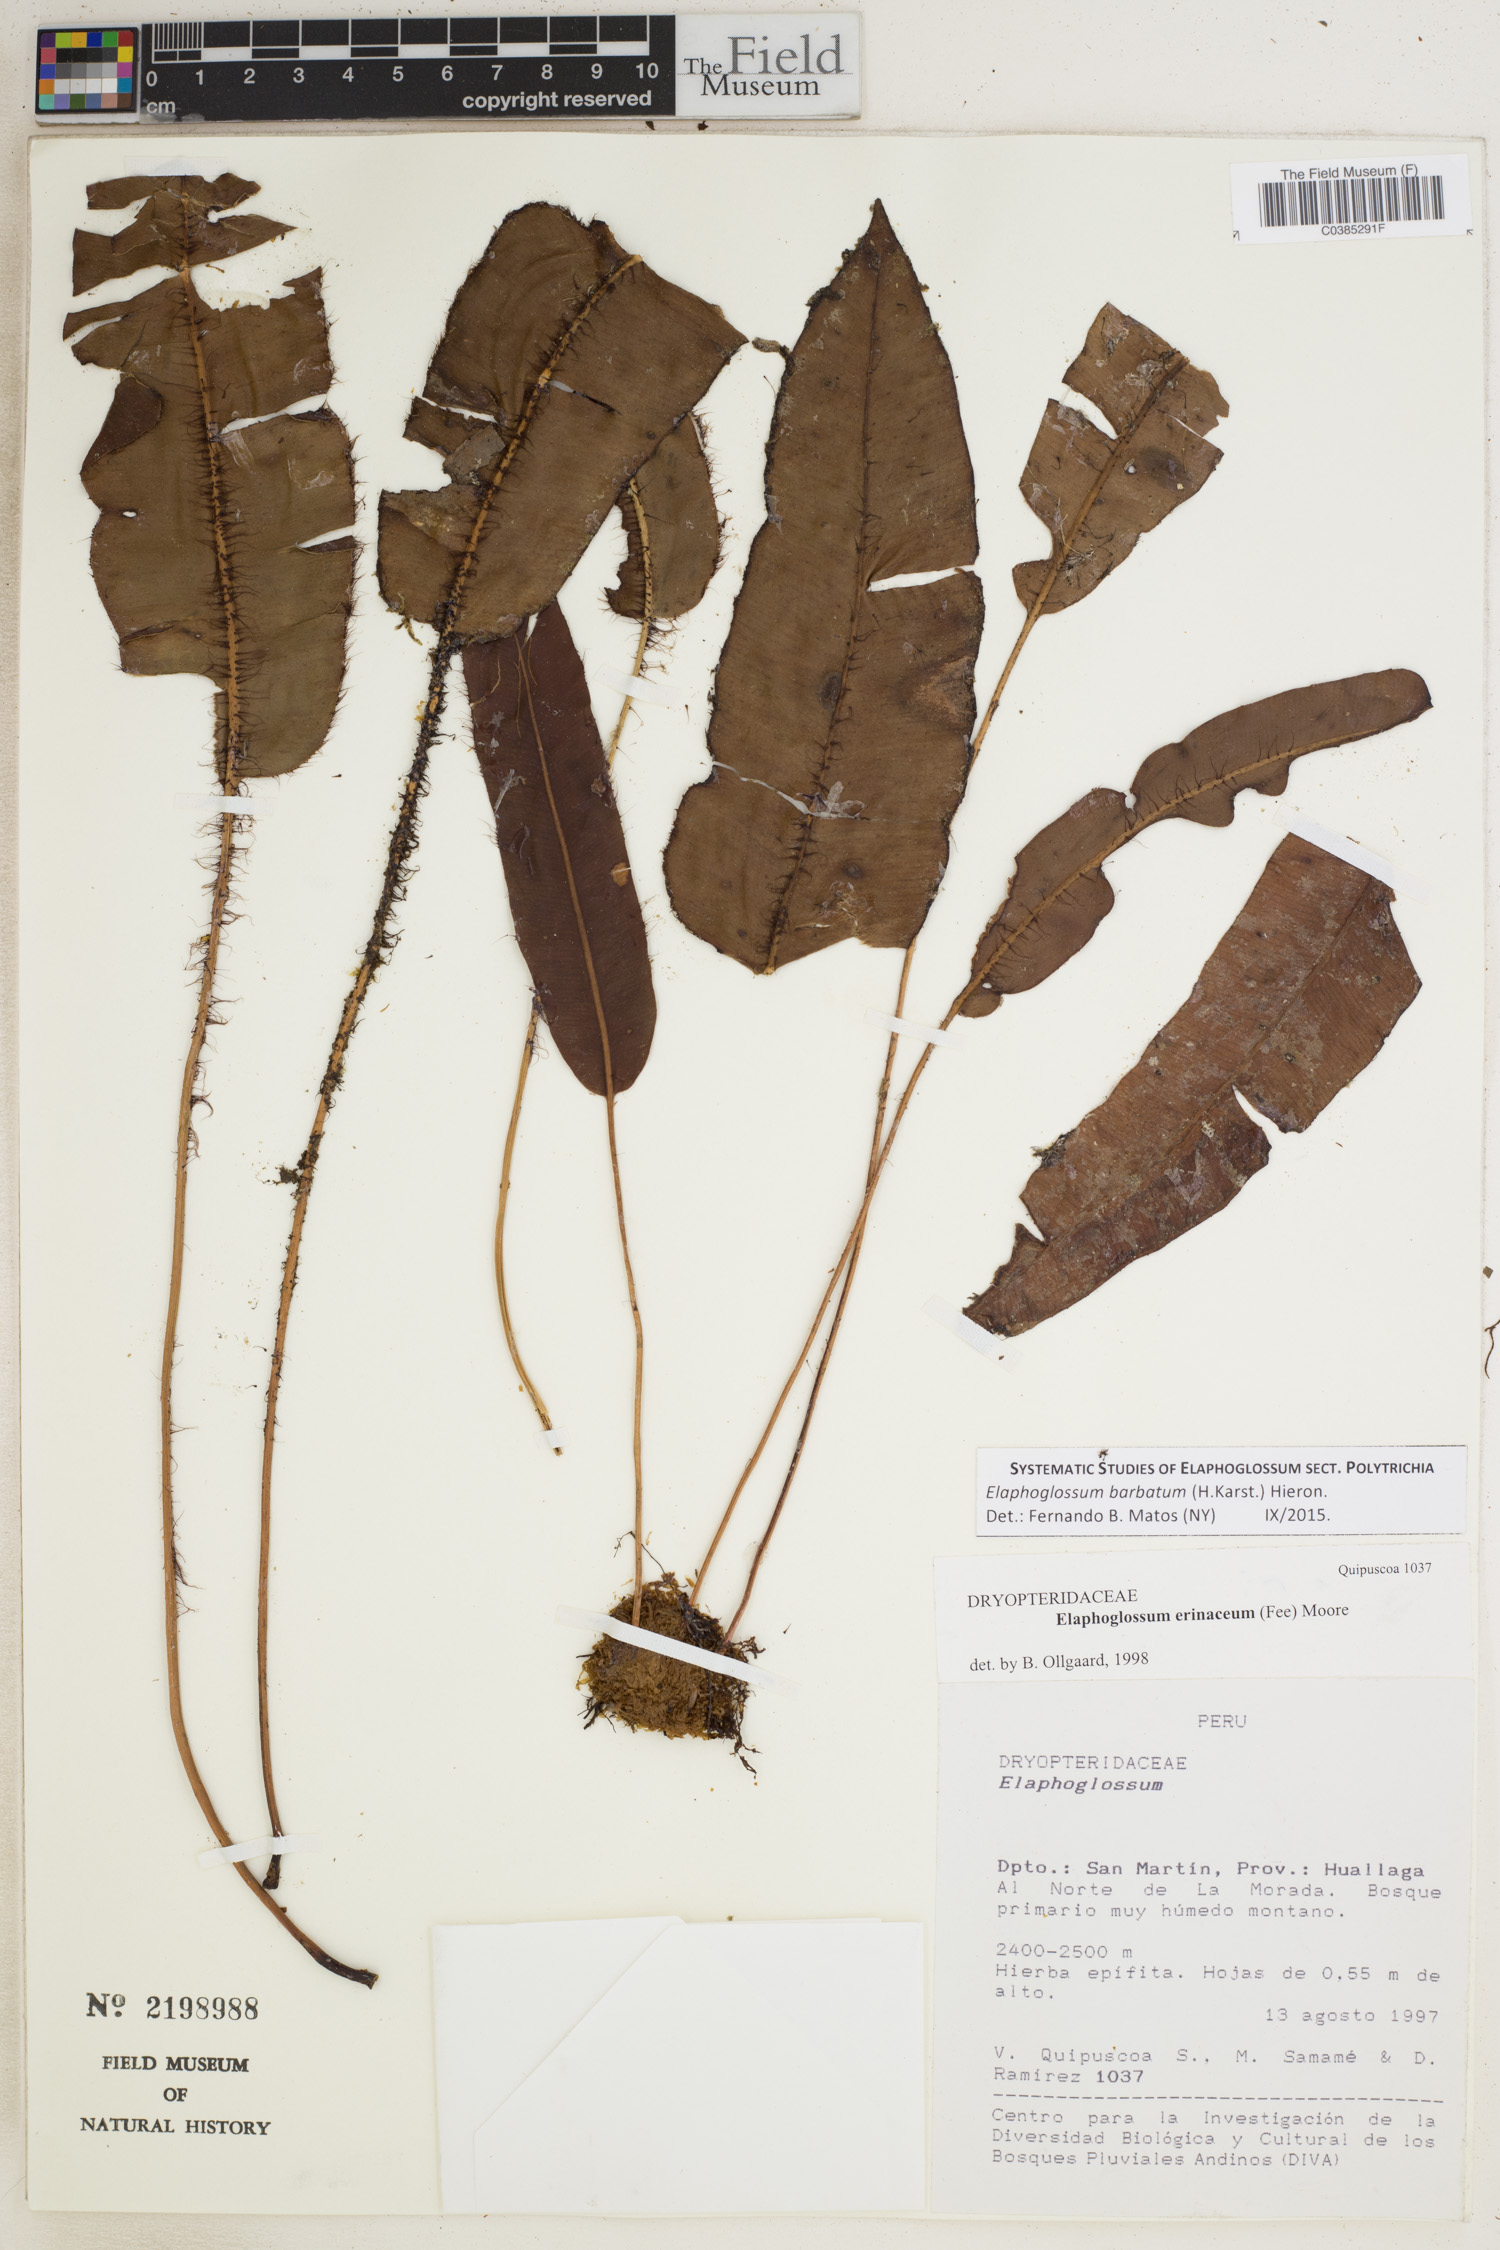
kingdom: Plantae
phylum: Tracheophyta
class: Polypodiopsida
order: Polypodiales
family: Dryopteridaceae
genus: Elaphoglossum
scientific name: Elaphoglossum barbatum
